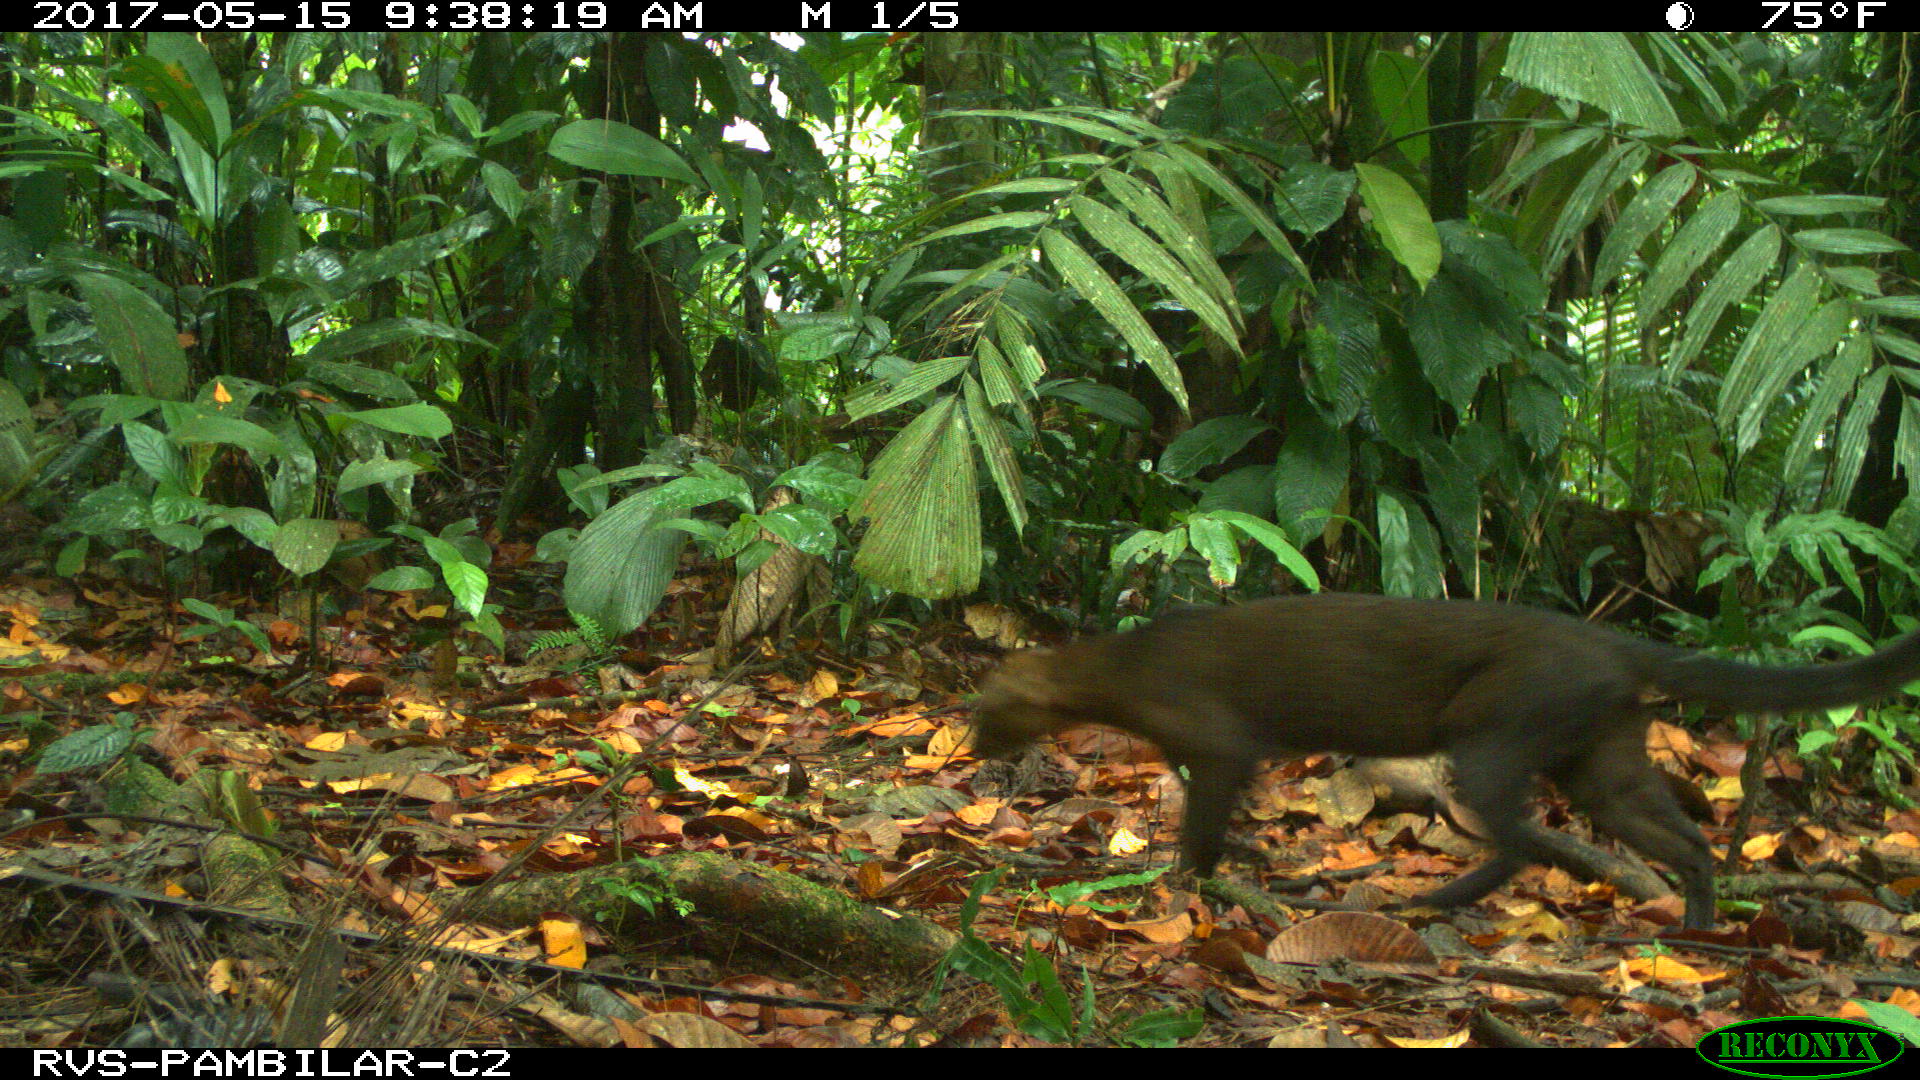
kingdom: Animalia
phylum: Chordata
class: Mammalia
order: Carnivora
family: Felidae
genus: Puma
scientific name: Puma yagouaroundi
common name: Jaguarundi
